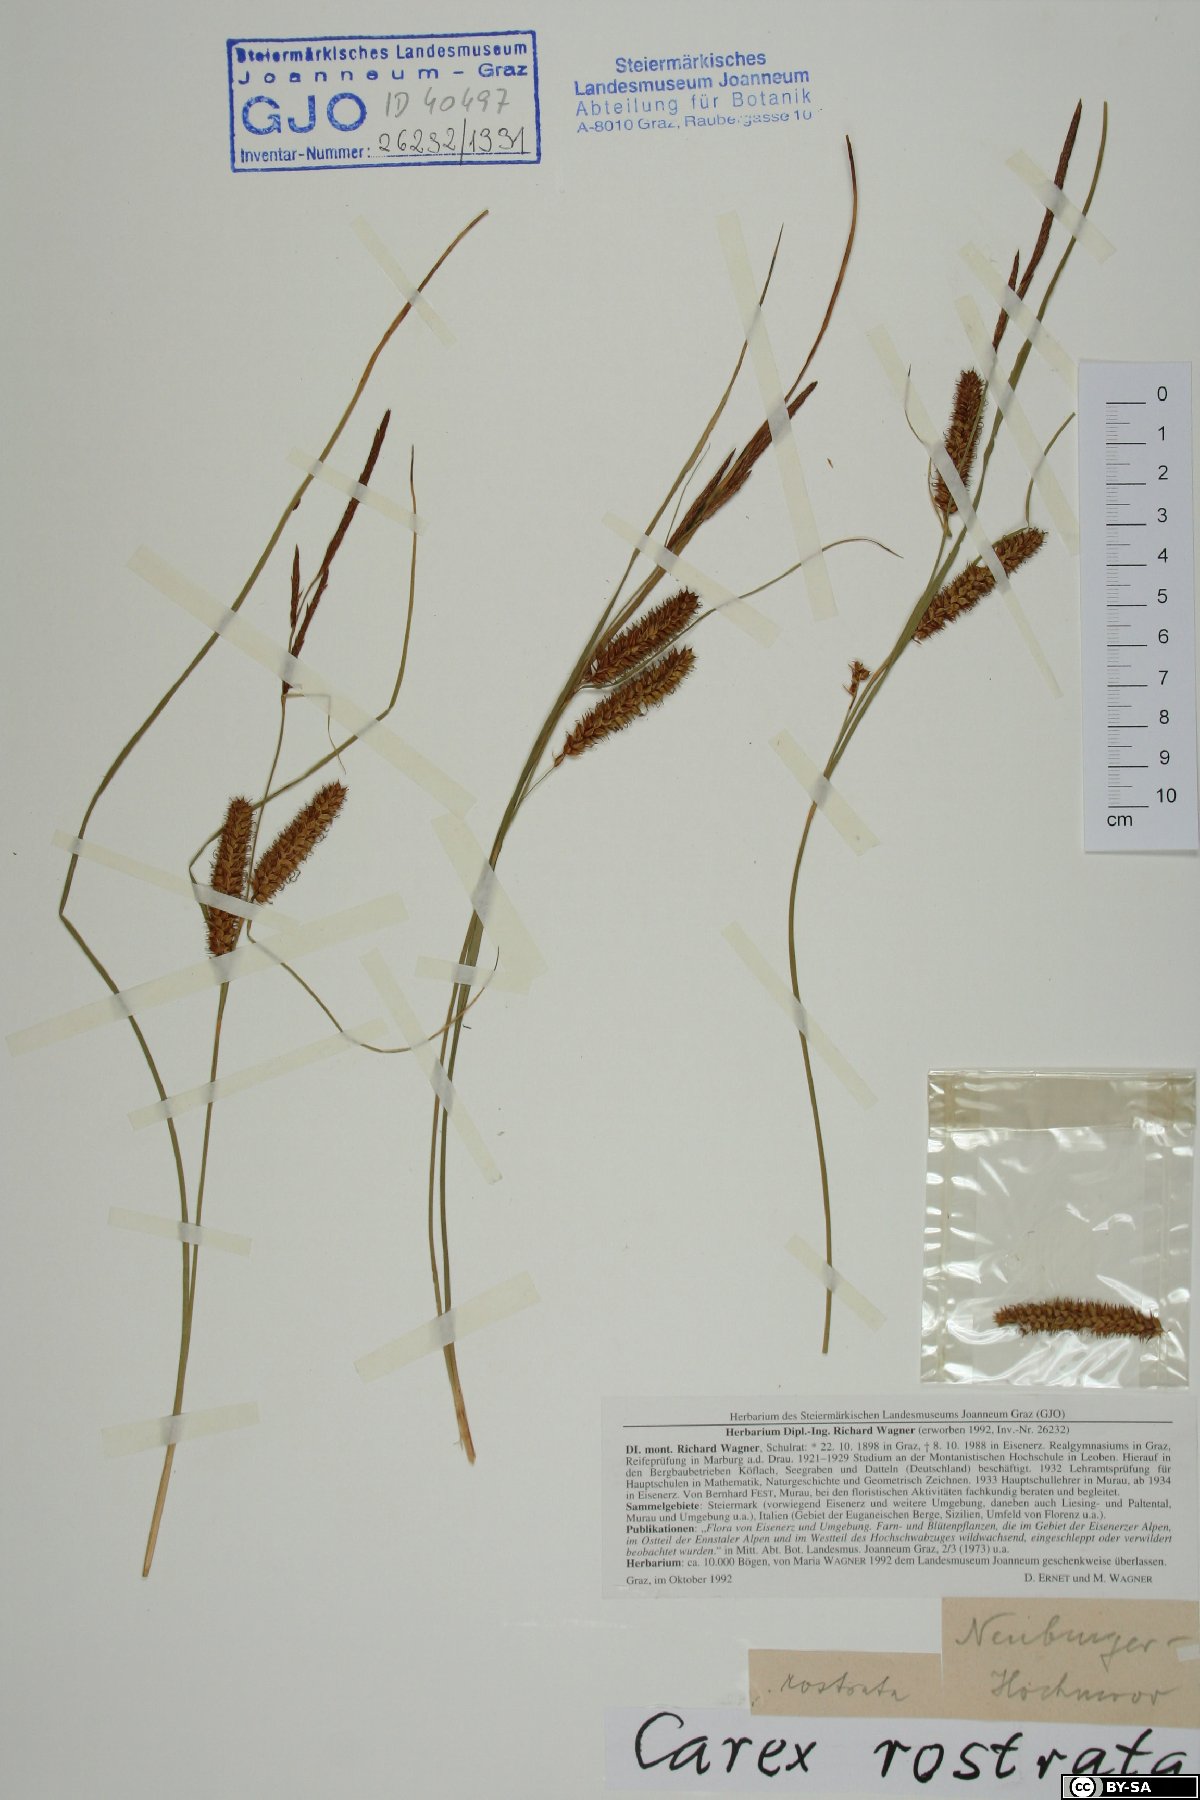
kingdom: Plantae
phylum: Tracheophyta
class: Liliopsida
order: Poales
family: Cyperaceae
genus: Carex
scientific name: Carex rostrata
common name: Bottle sedge
